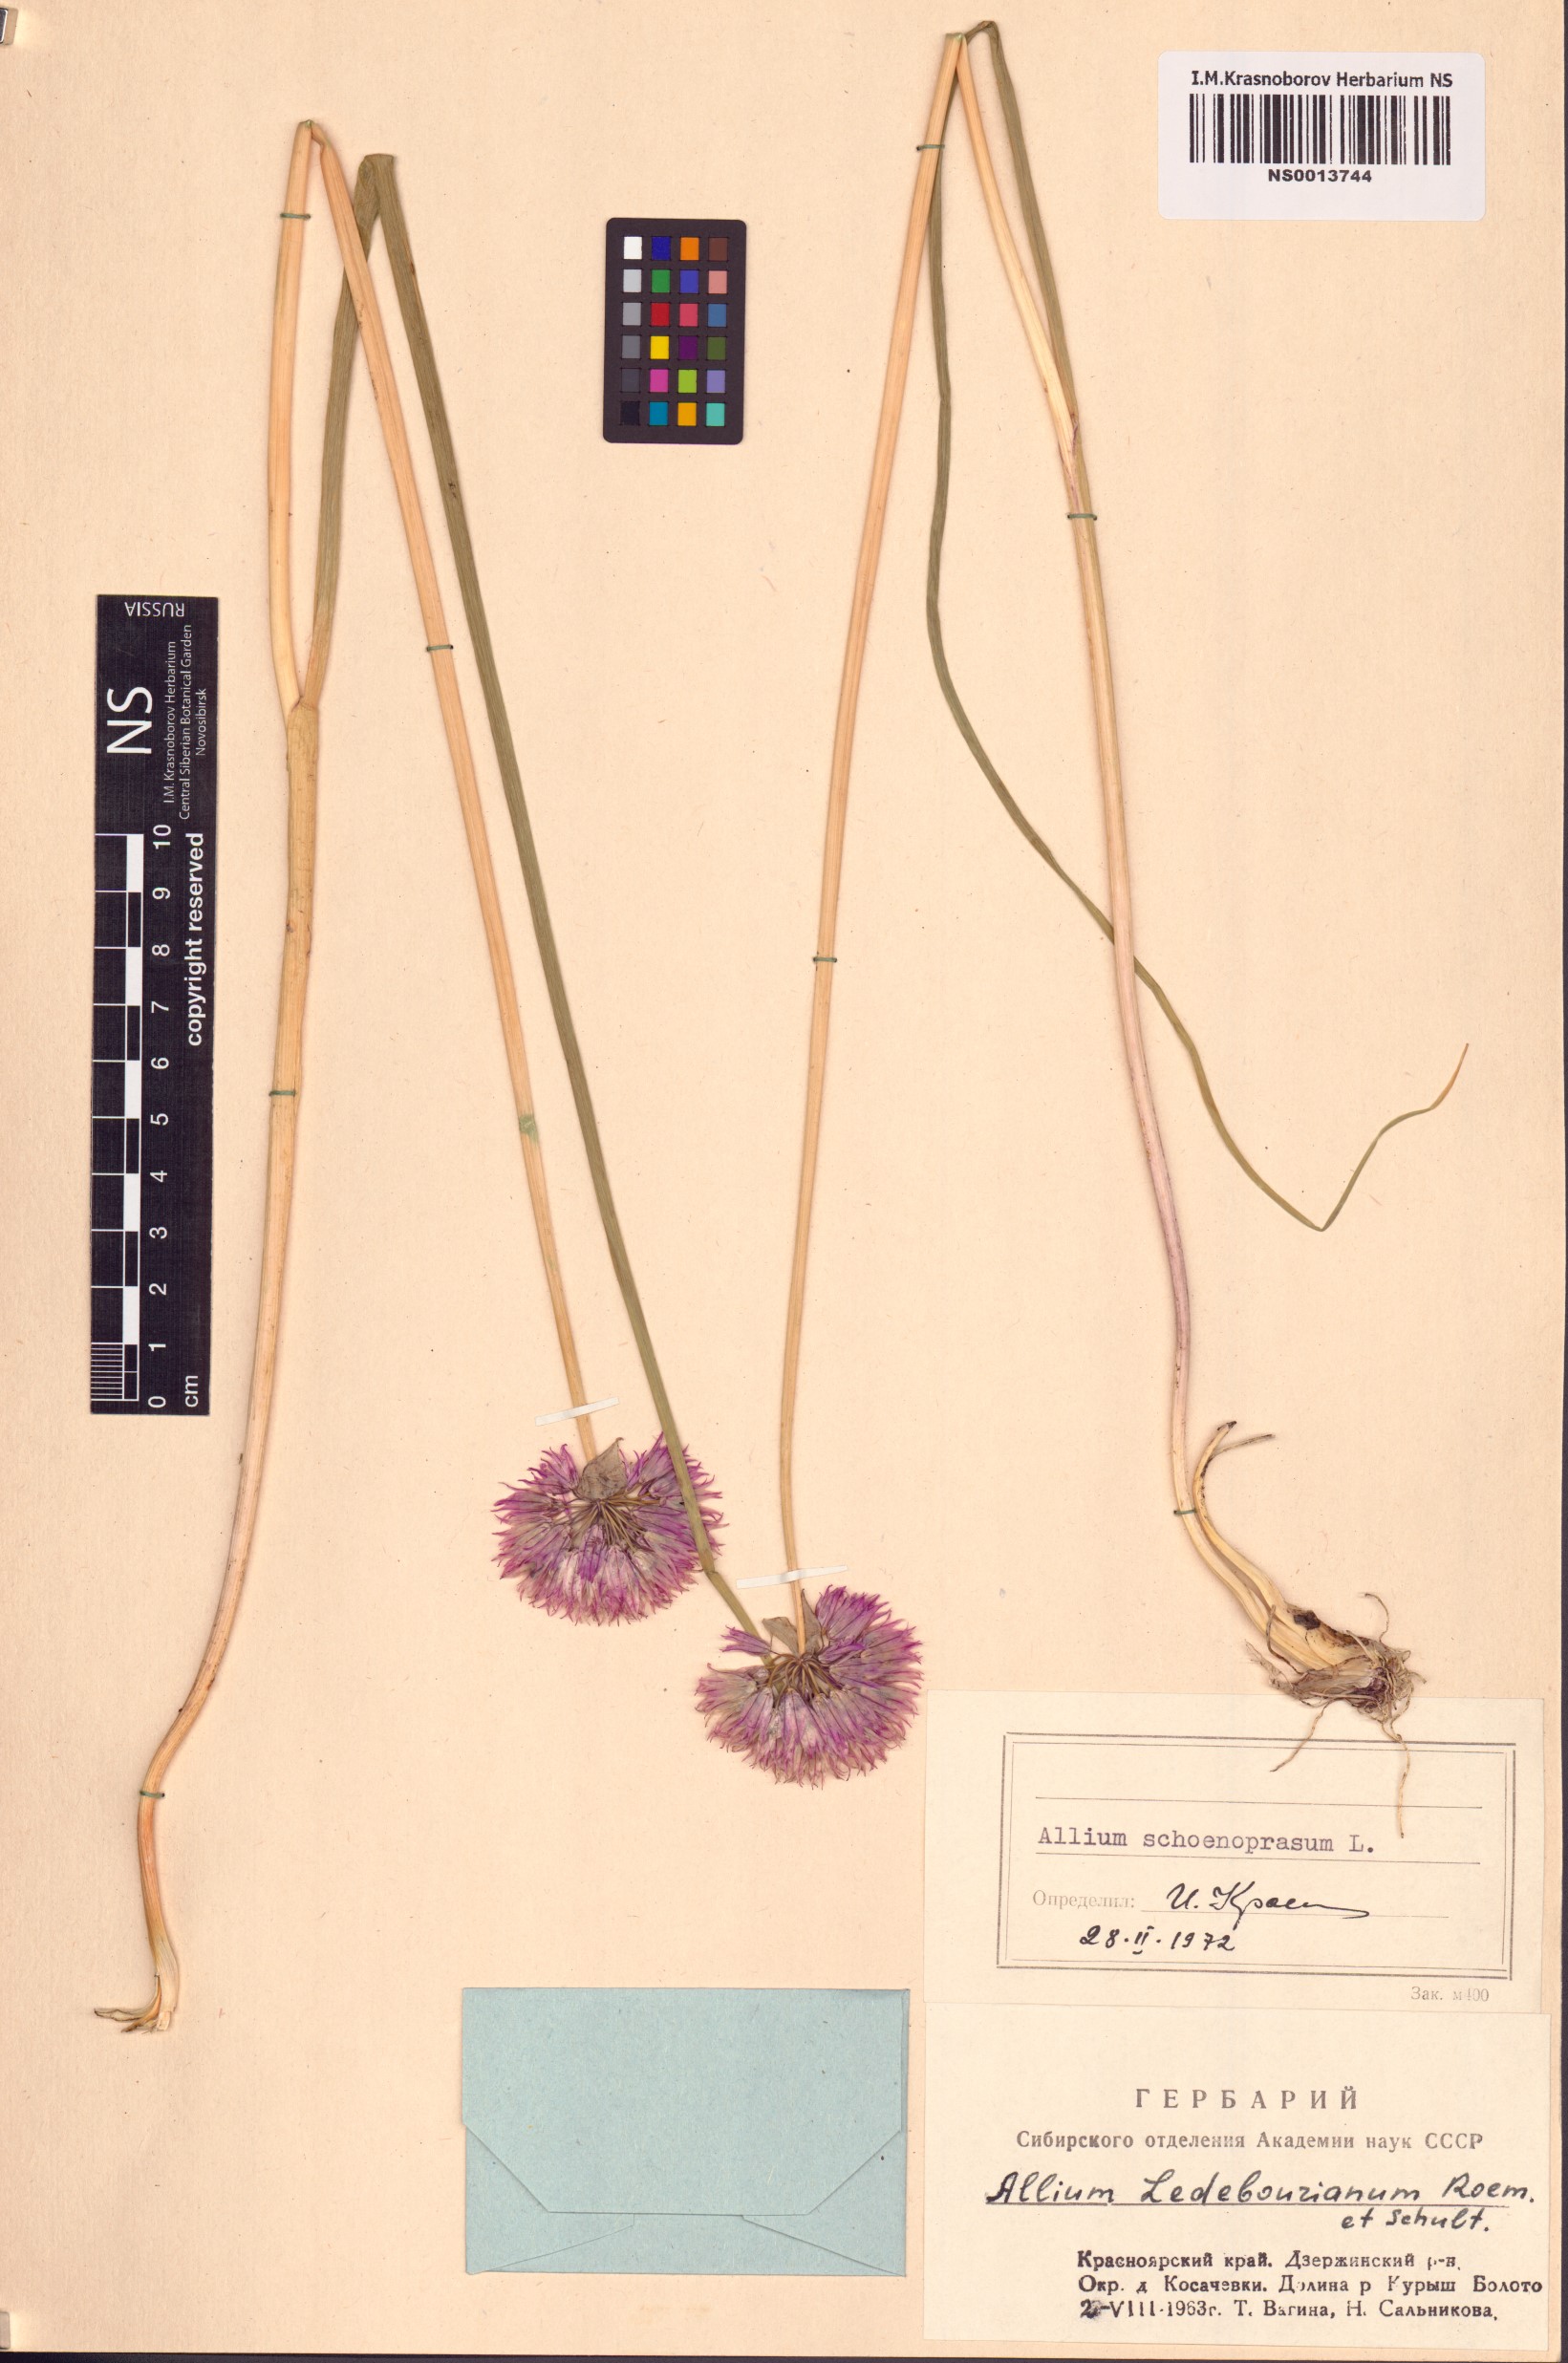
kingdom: Plantae
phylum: Tracheophyta
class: Liliopsida
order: Asparagales
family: Amaryllidaceae
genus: Allium
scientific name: Allium schoenoprasum
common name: Chives
